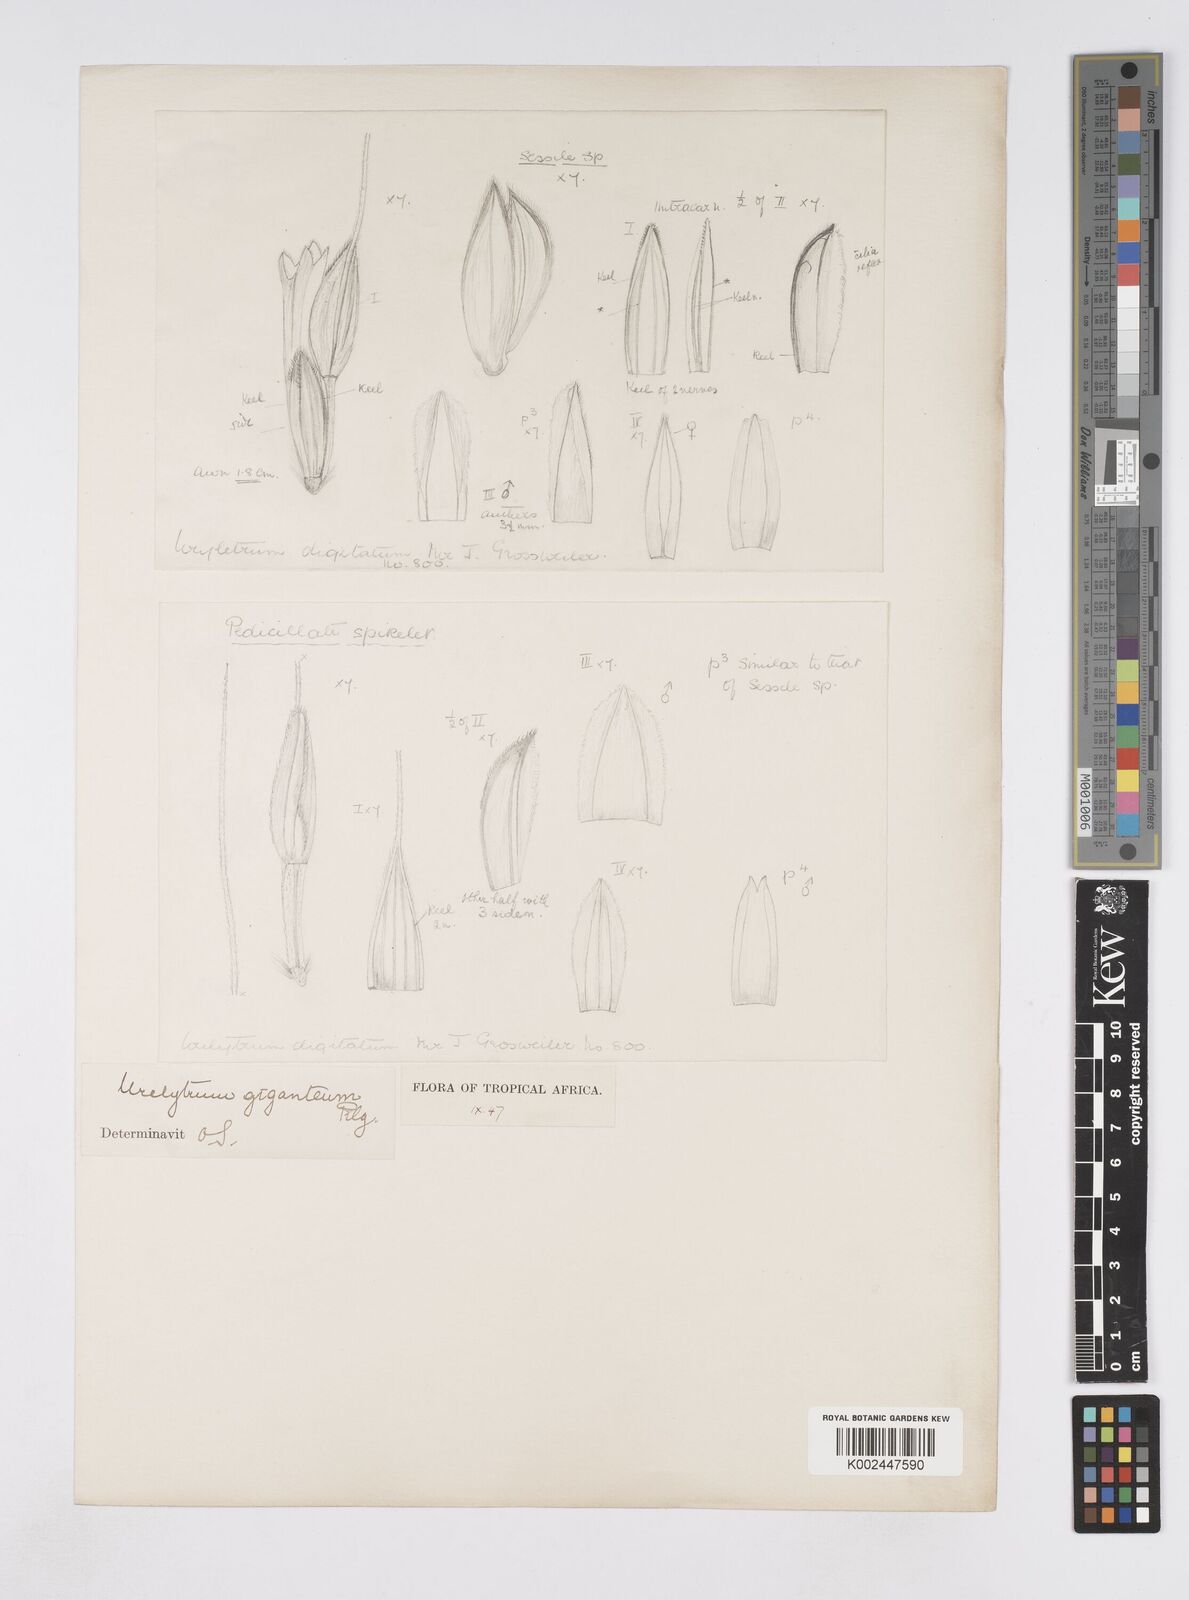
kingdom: Plantae
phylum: Tracheophyta
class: Liliopsida
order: Poales
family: Poaceae
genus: Urelytrum
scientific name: Urelytrum digitatum
